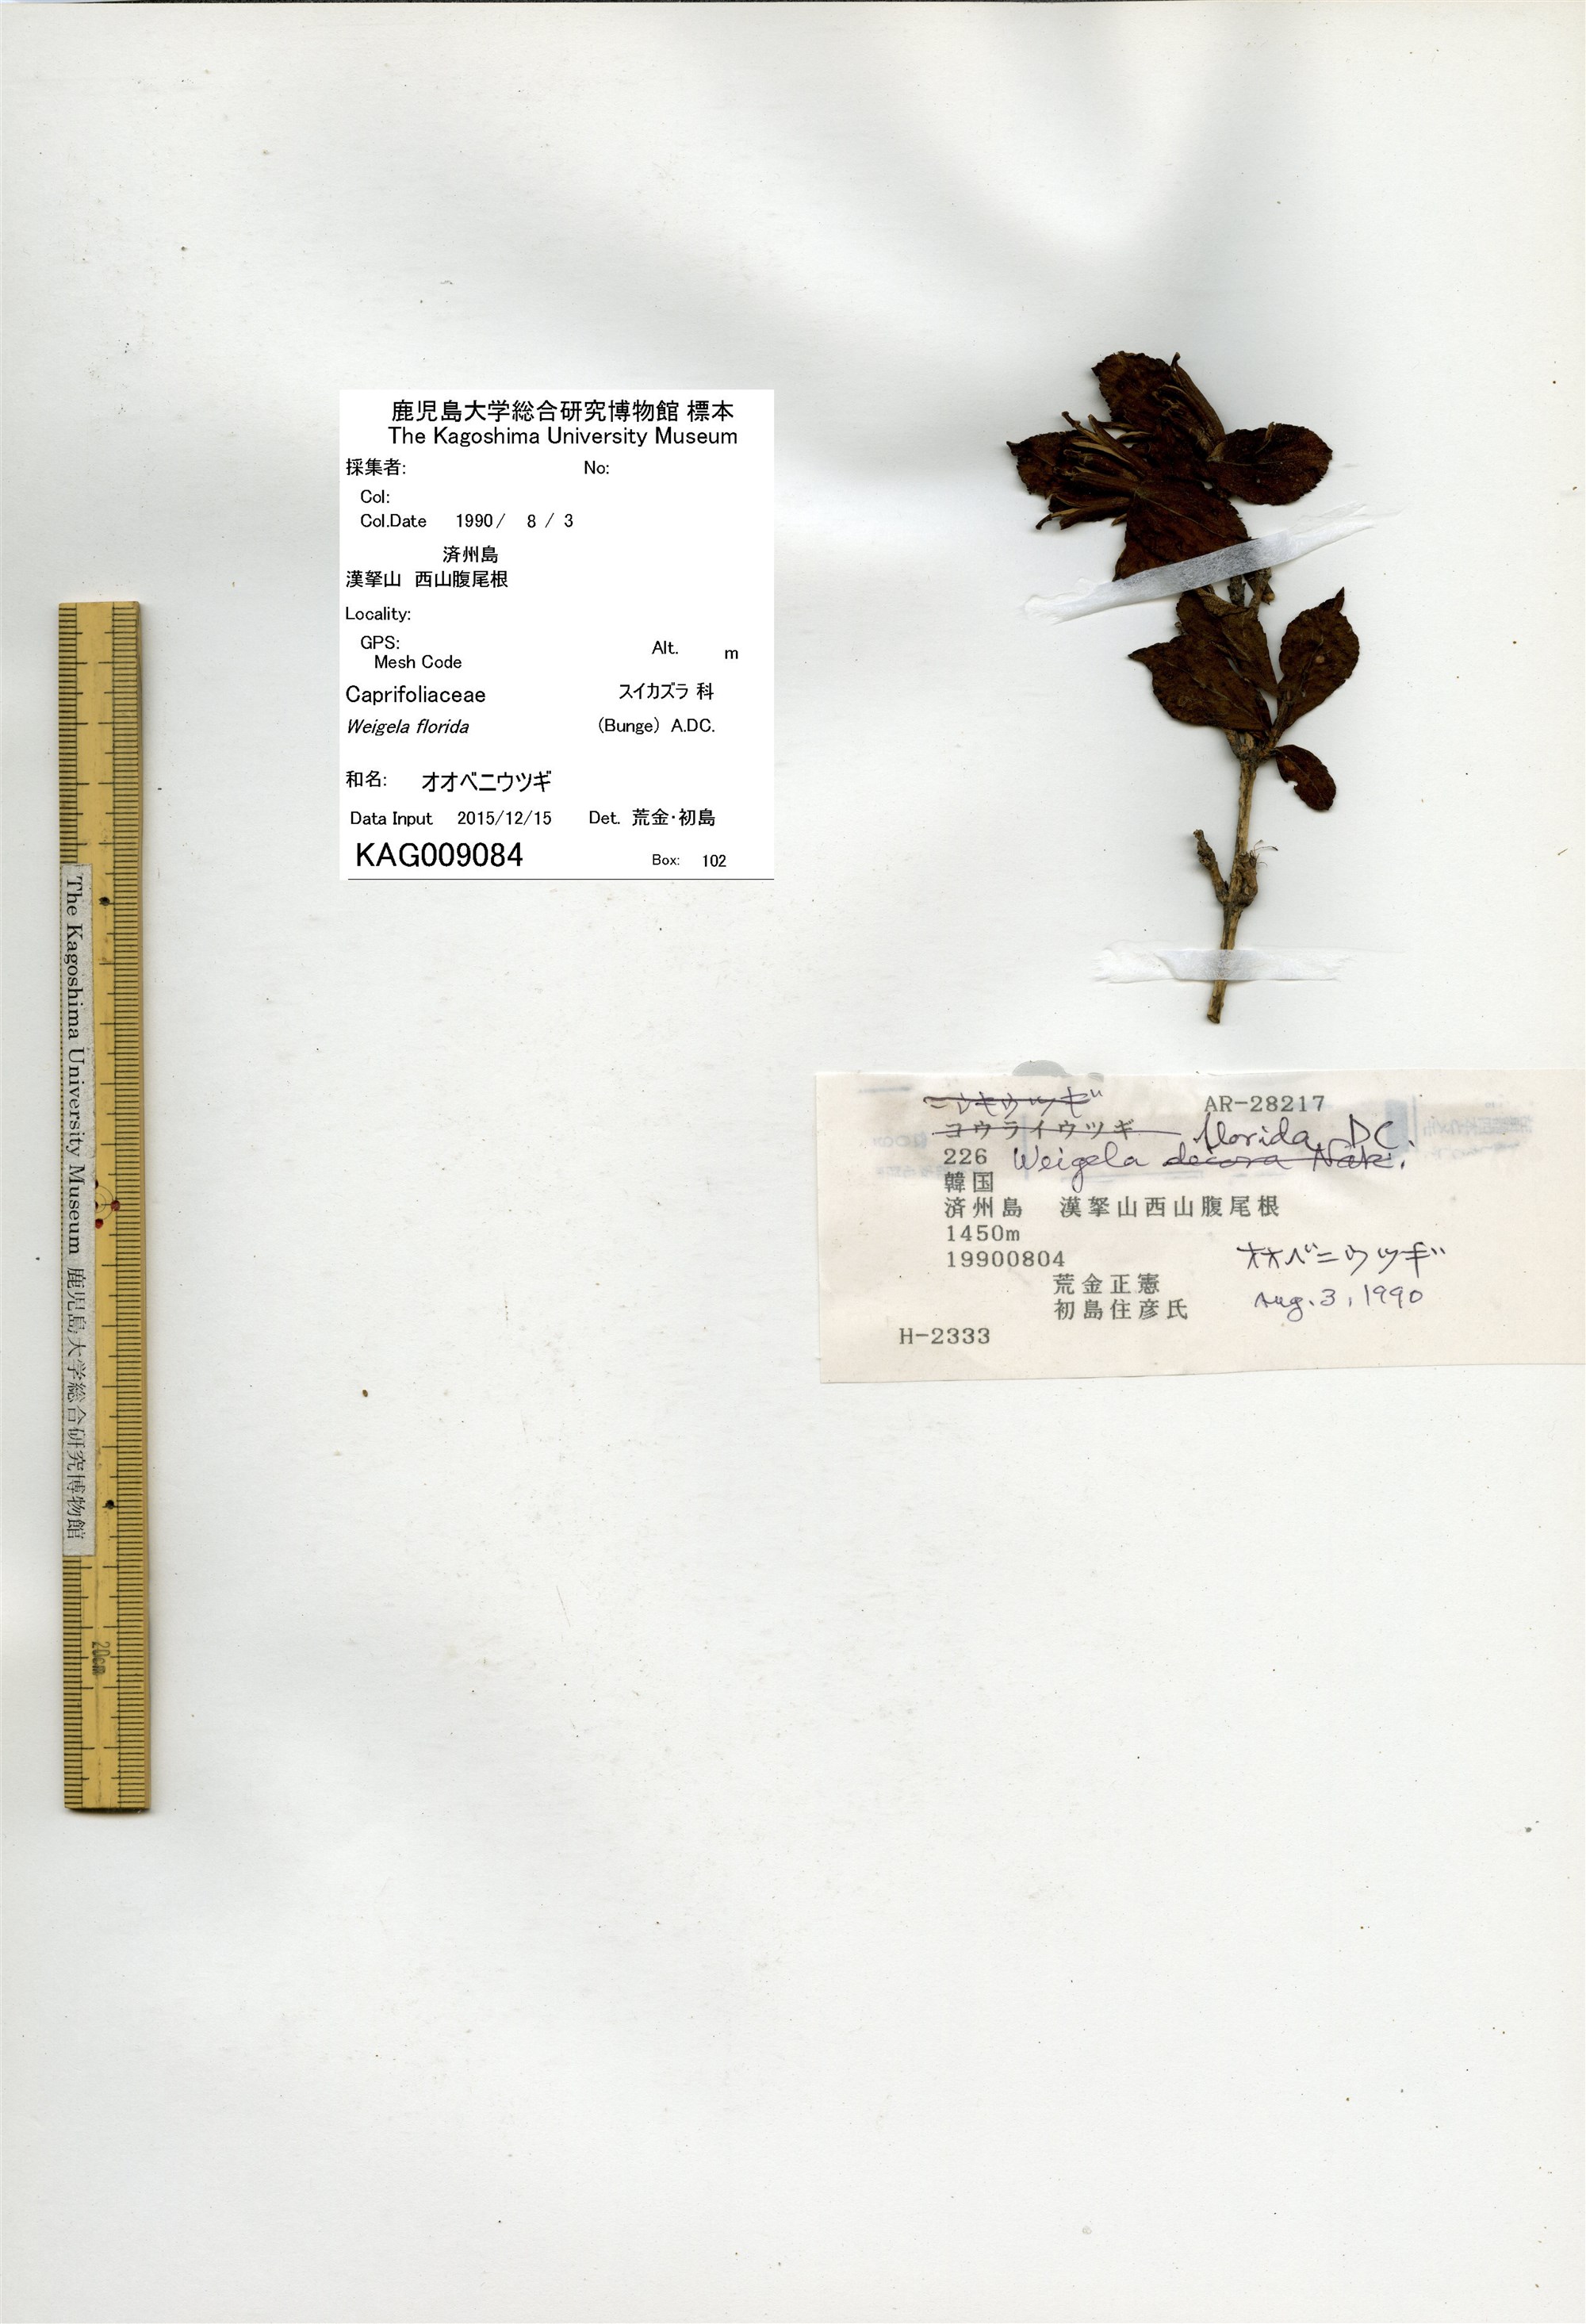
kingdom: Plantae
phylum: Tracheophyta
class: Magnoliopsida
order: Dipsacales
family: Caprifoliaceae
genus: Weigela
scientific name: Weigela florida
